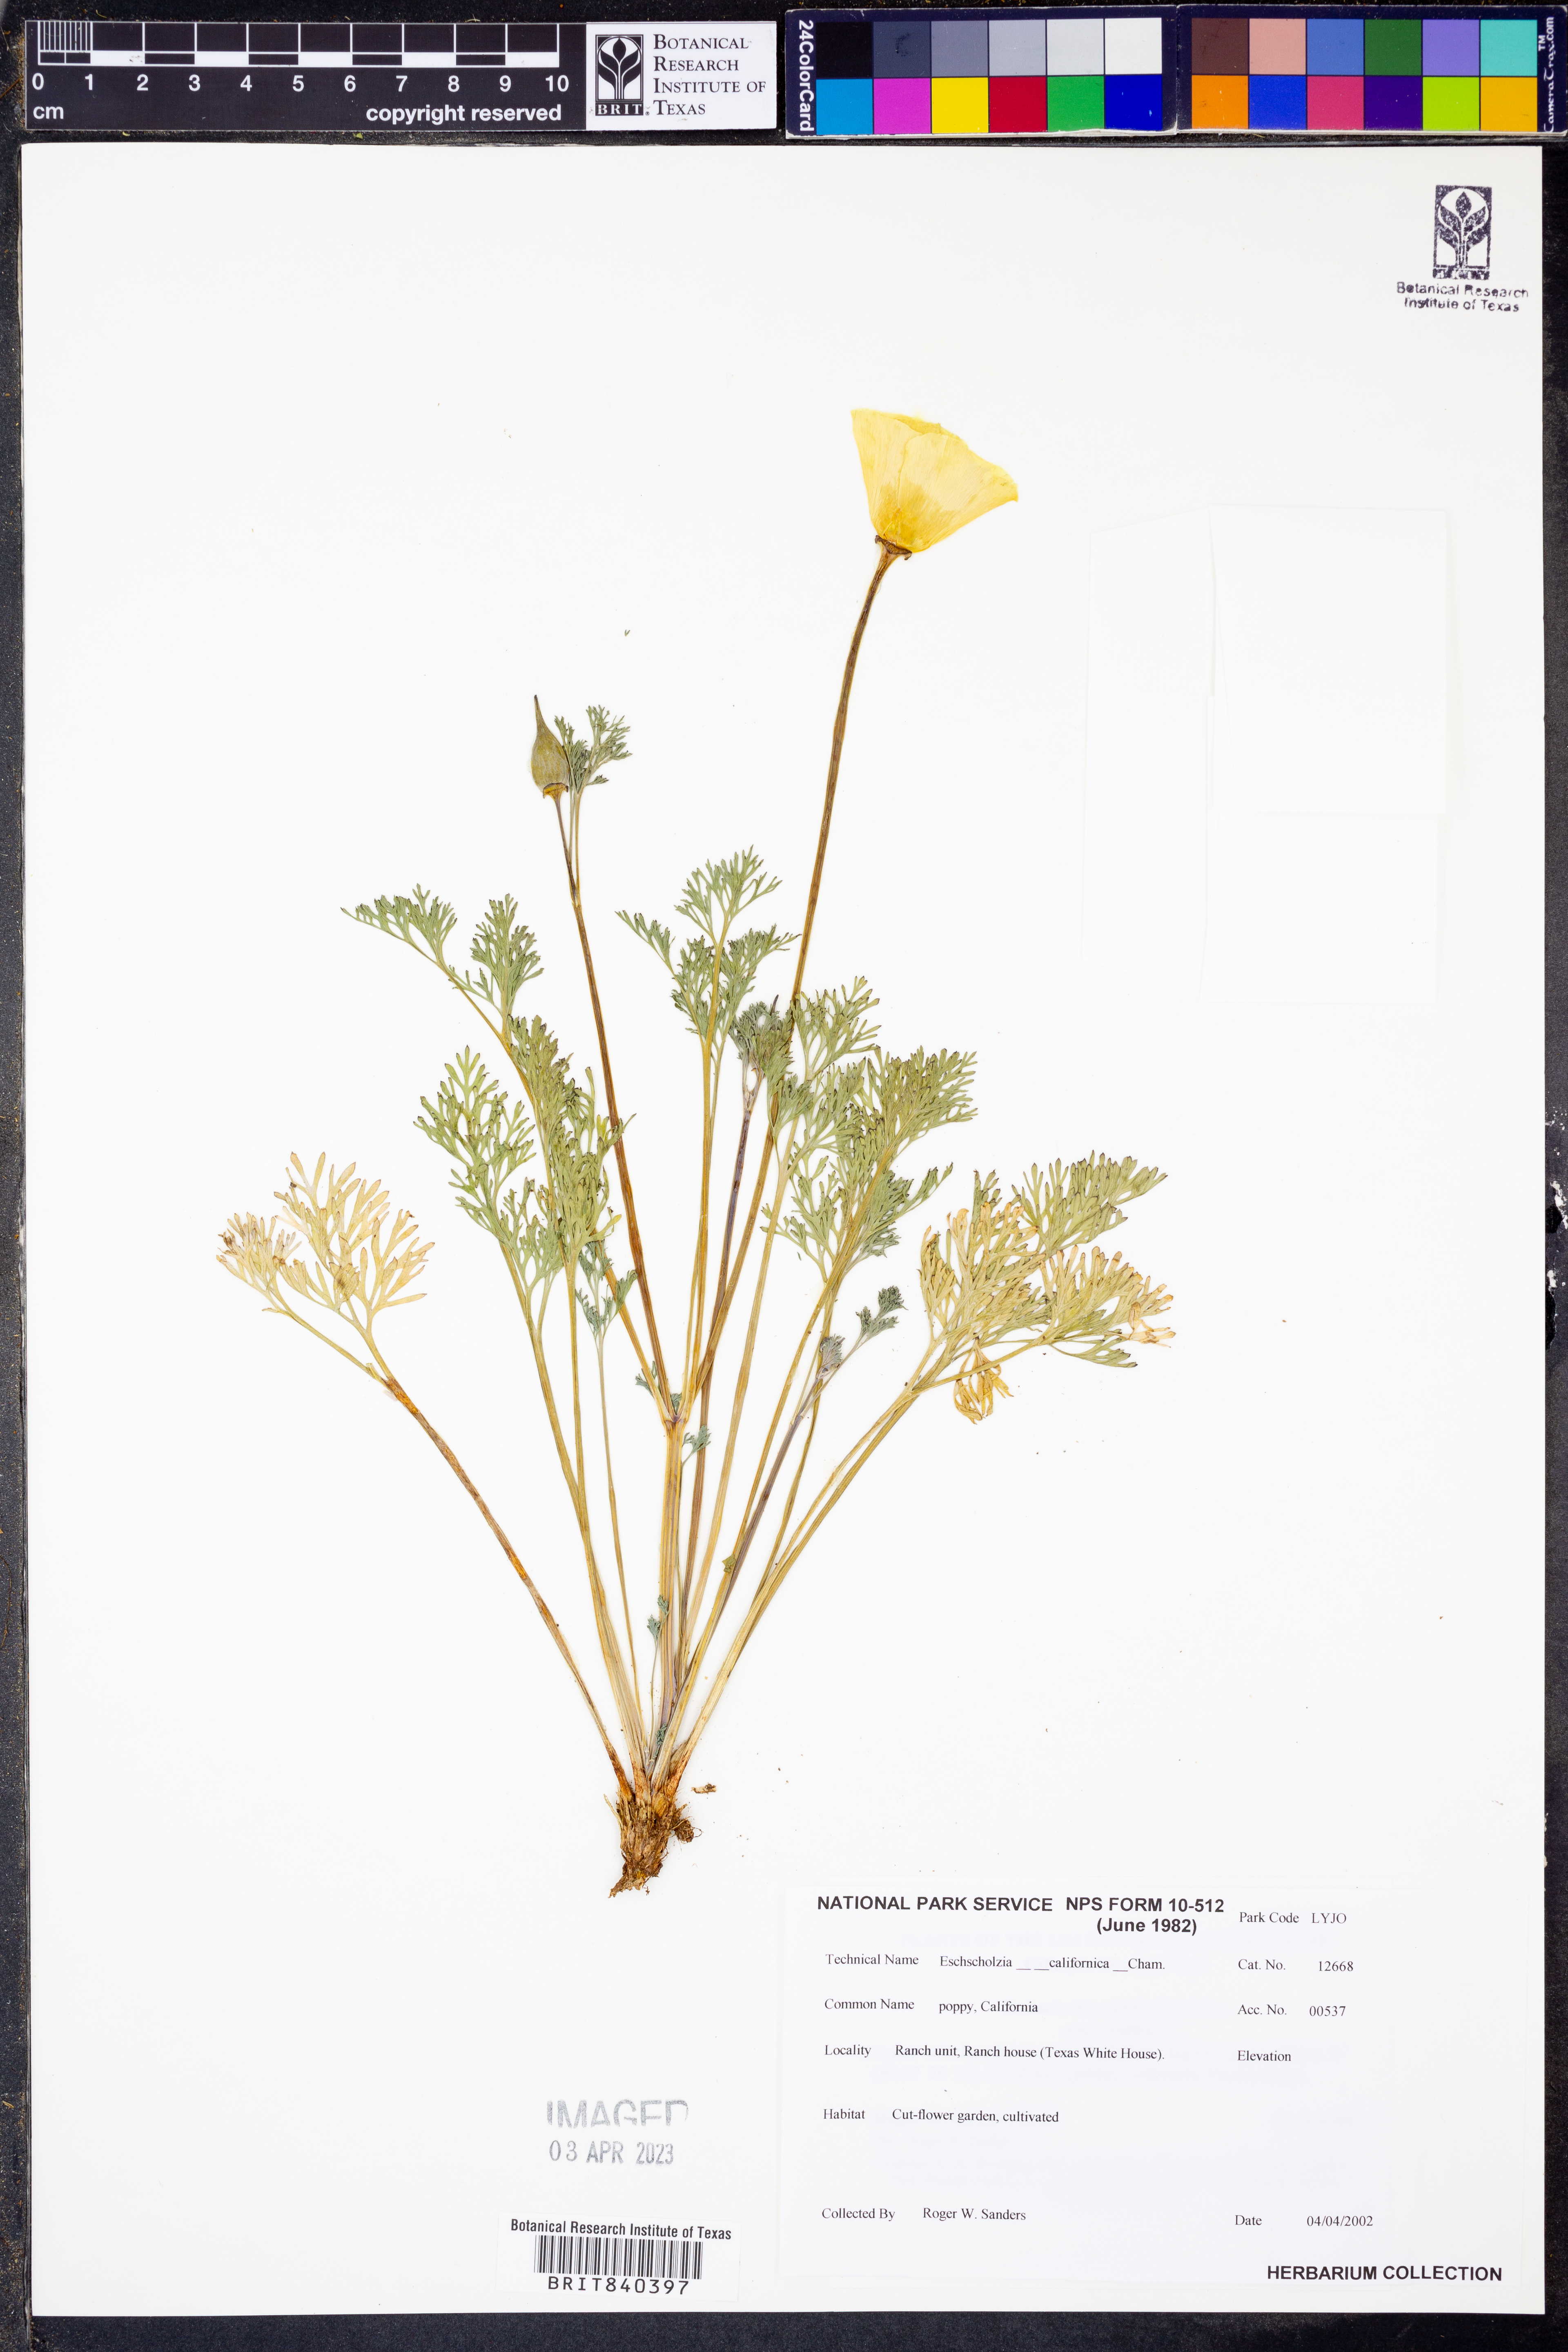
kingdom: Plantae
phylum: Tracheophyta
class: Magnoliopsida
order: Ranunculales
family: Papaveraceae
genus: Eschscholzia
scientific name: Eschscholzia californica
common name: California poppy
